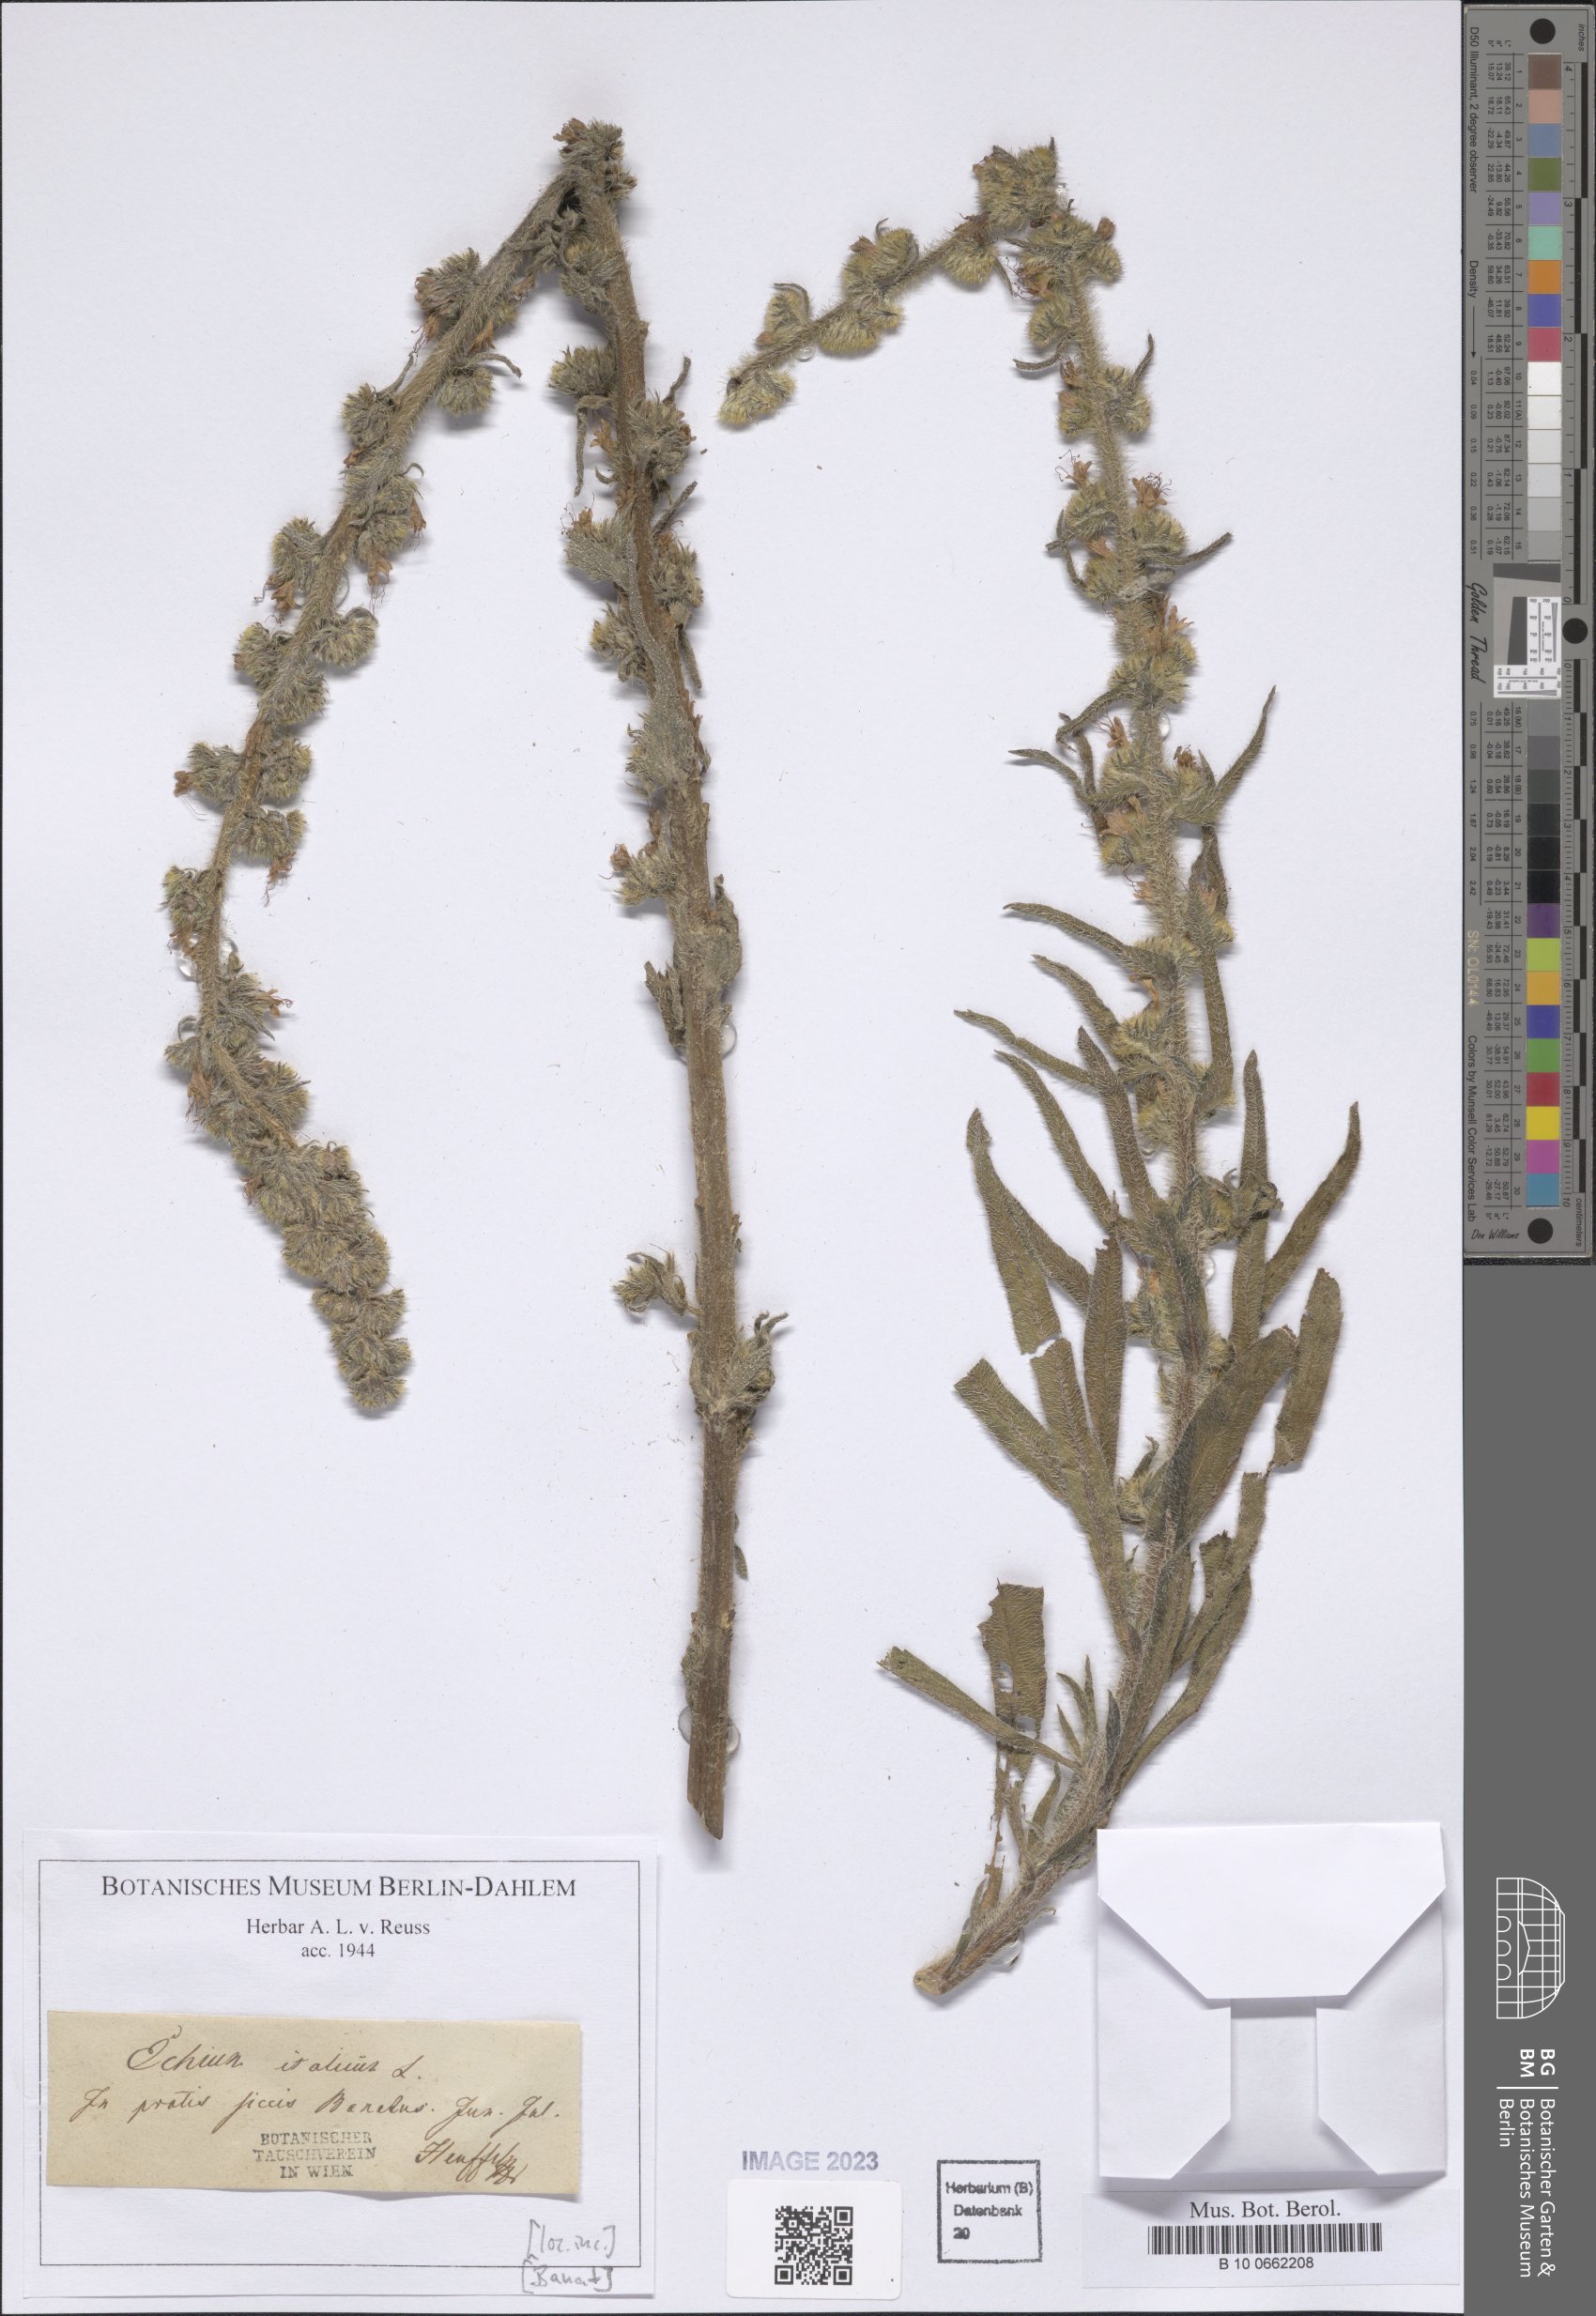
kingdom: Plantae
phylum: Tracheophyta
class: Magnoliopsida
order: Boraginales
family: Boraginaceae
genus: Echium
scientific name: Echium italicum
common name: Italian viper's bugloss
